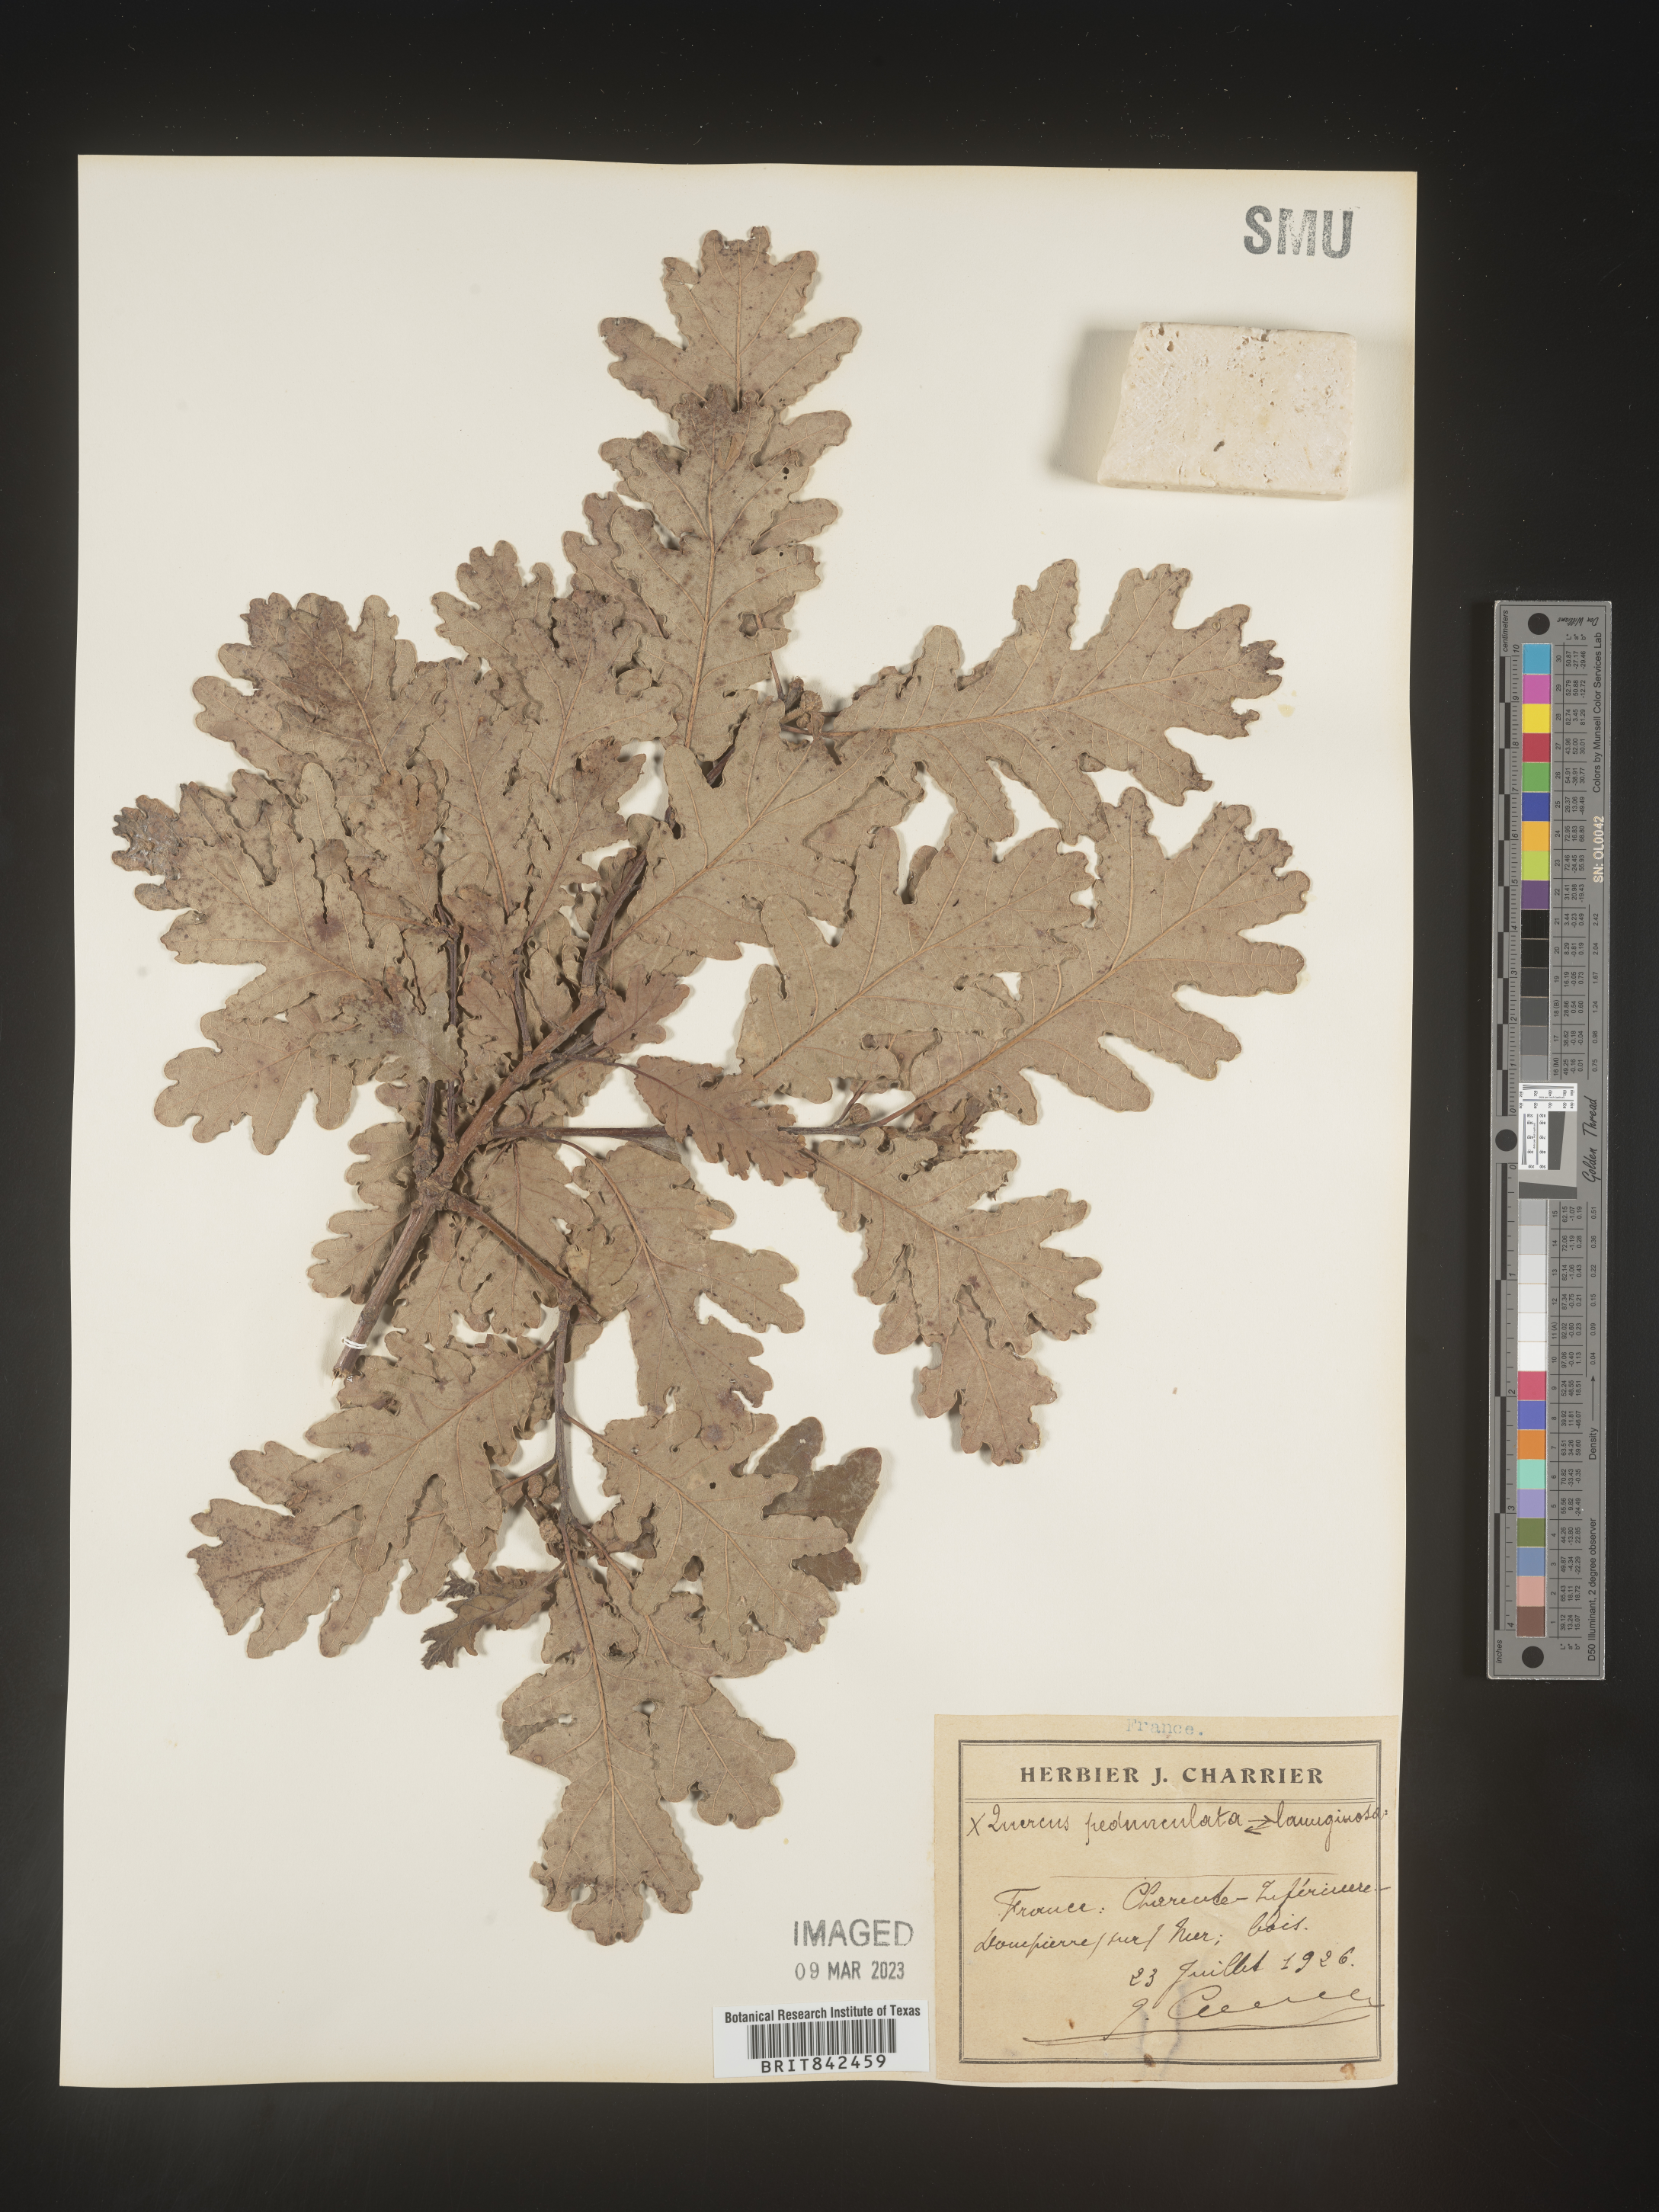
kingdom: Plantae
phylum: Tracheophyta
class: Magnoliopsida
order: Fagales
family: Fagaceae
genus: Quercus
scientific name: Quercus
